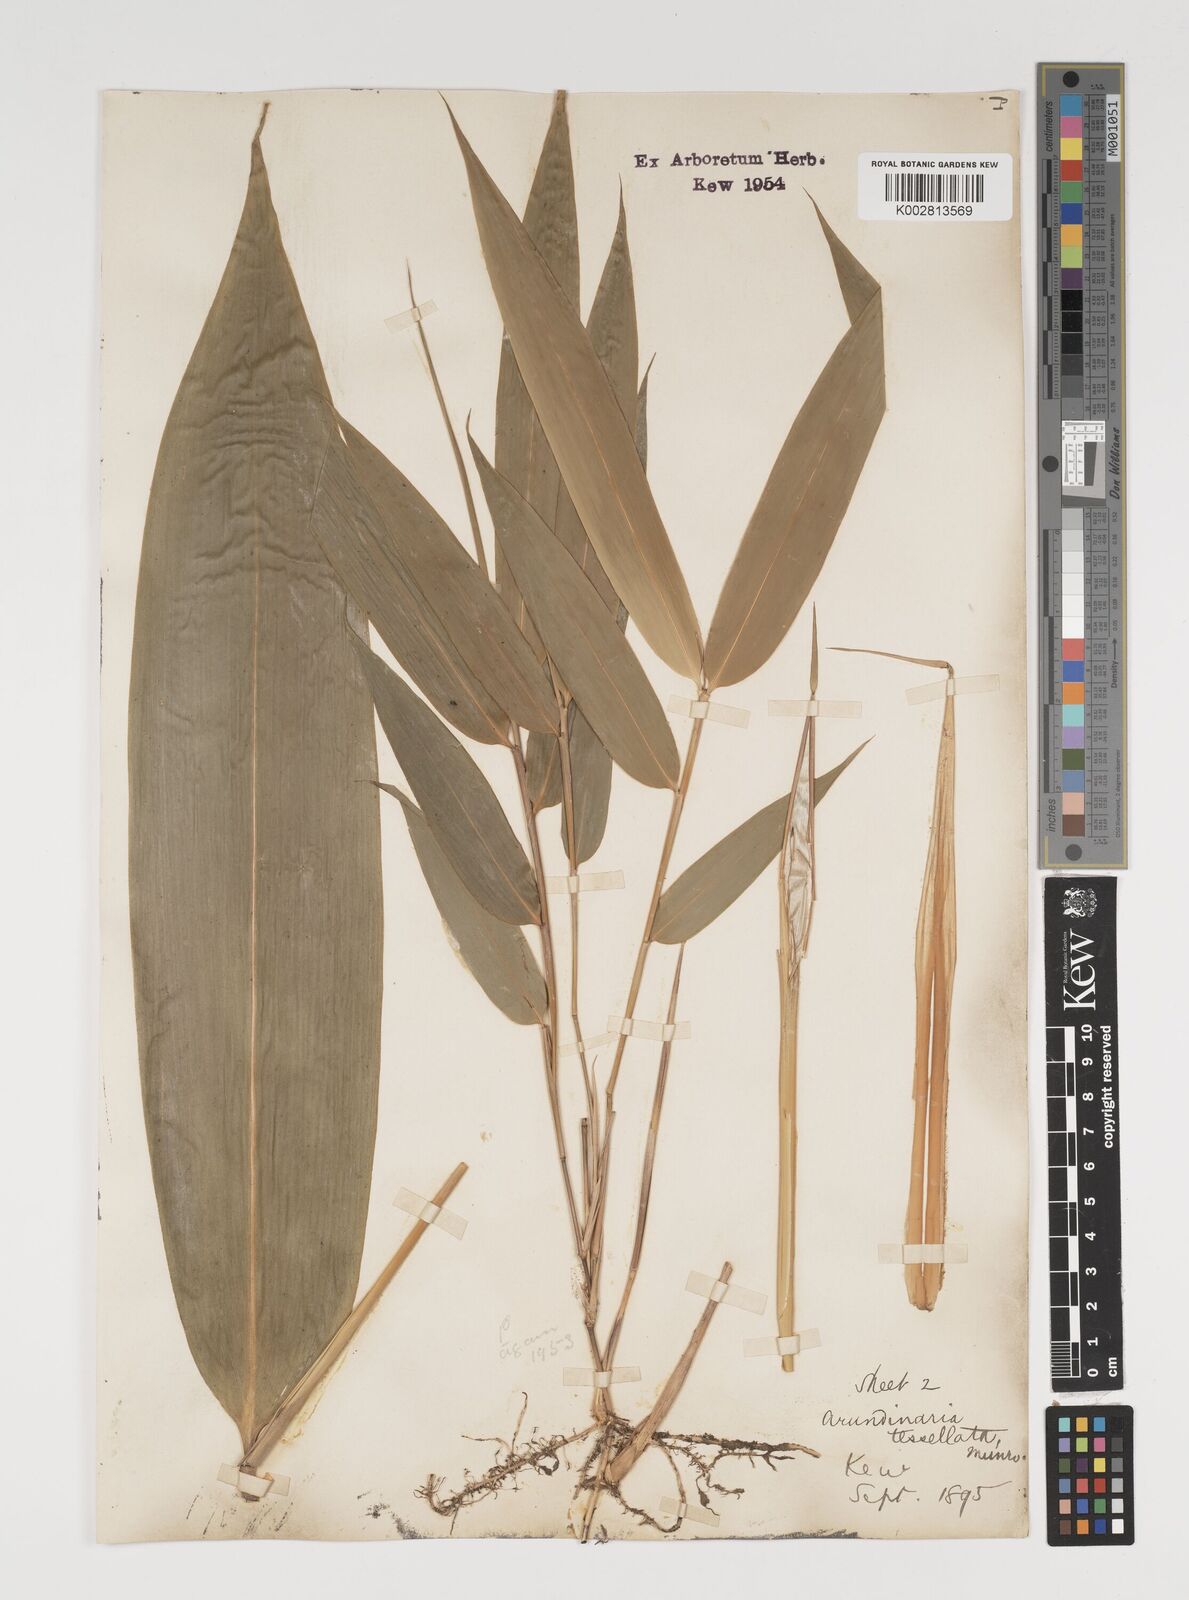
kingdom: Plantae
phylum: Tracheophyta
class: Liliopsida
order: Poales
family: Poaceae
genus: Indocalamus
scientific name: Indocalamus tessellatus
